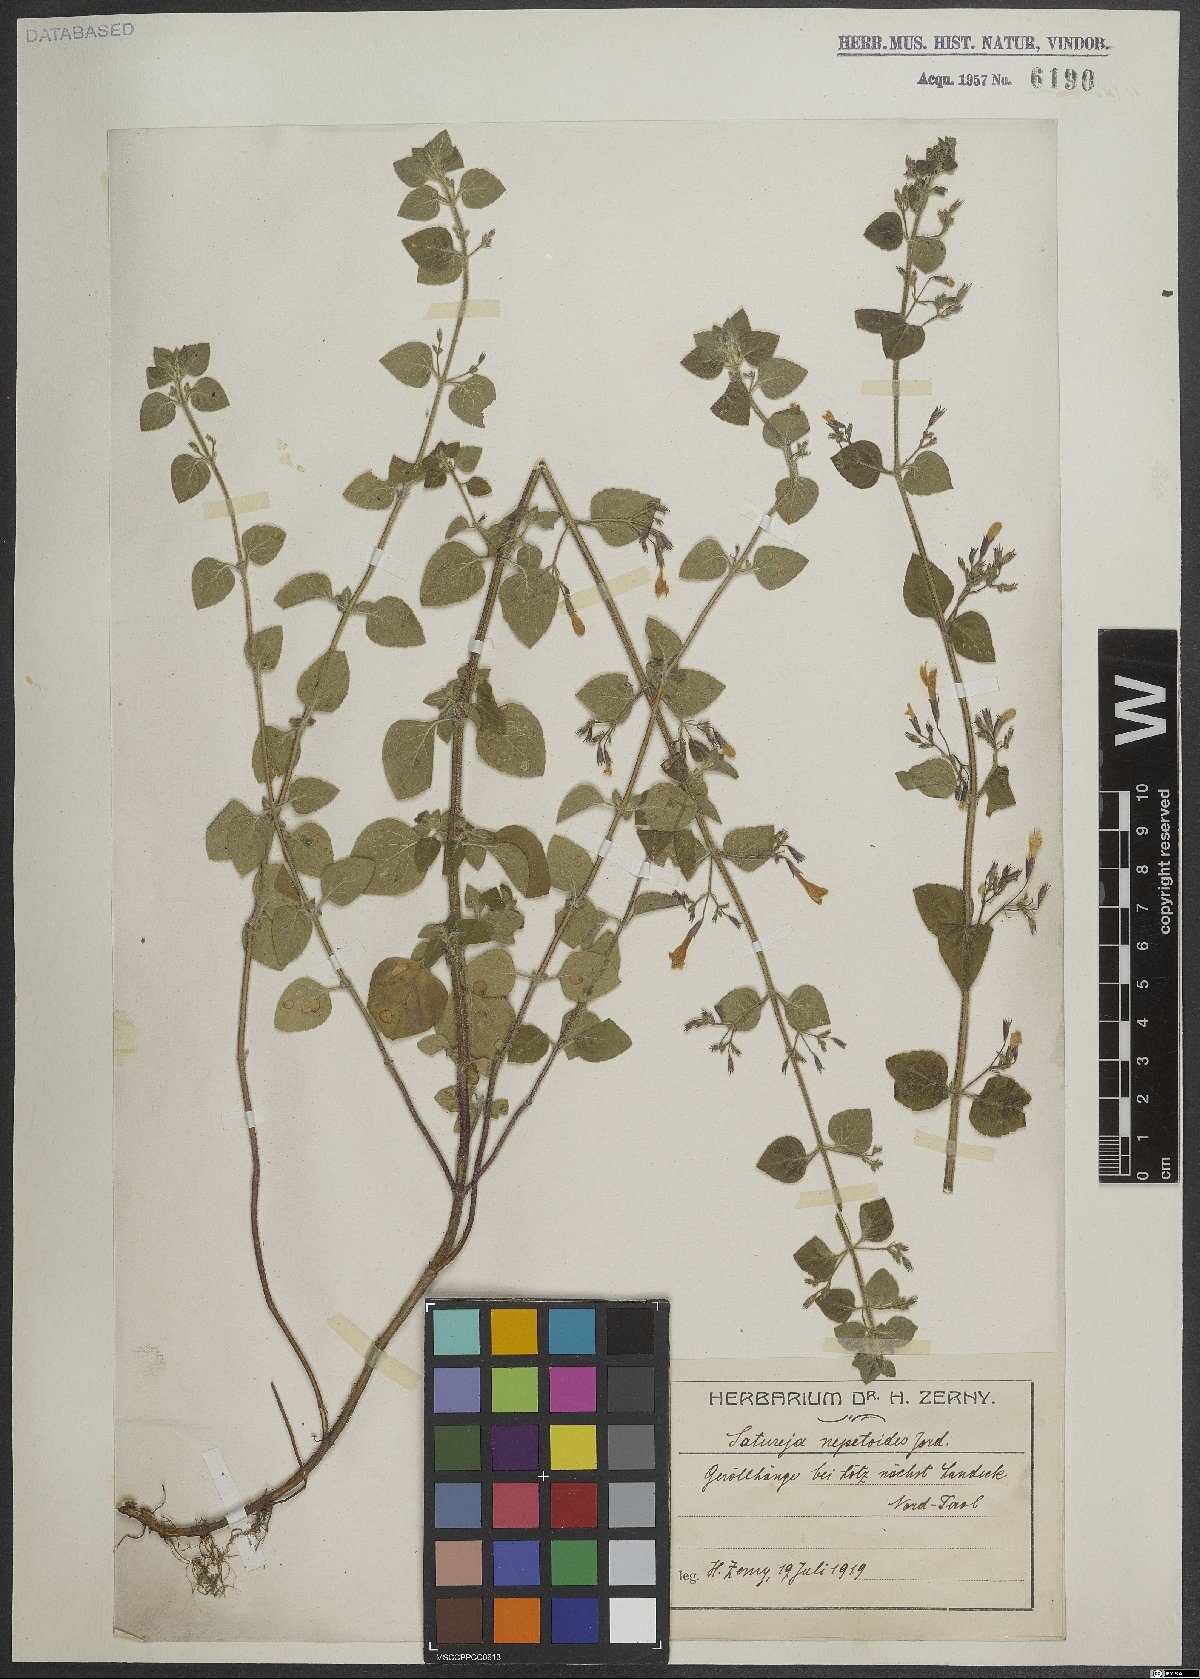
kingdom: Plantae
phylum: Tracheophyta
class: Magnoliopsida
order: Lamiales
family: Lamiaceae
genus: Clinopodium
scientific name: Clinopodium nepeta
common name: Lesser calamint
